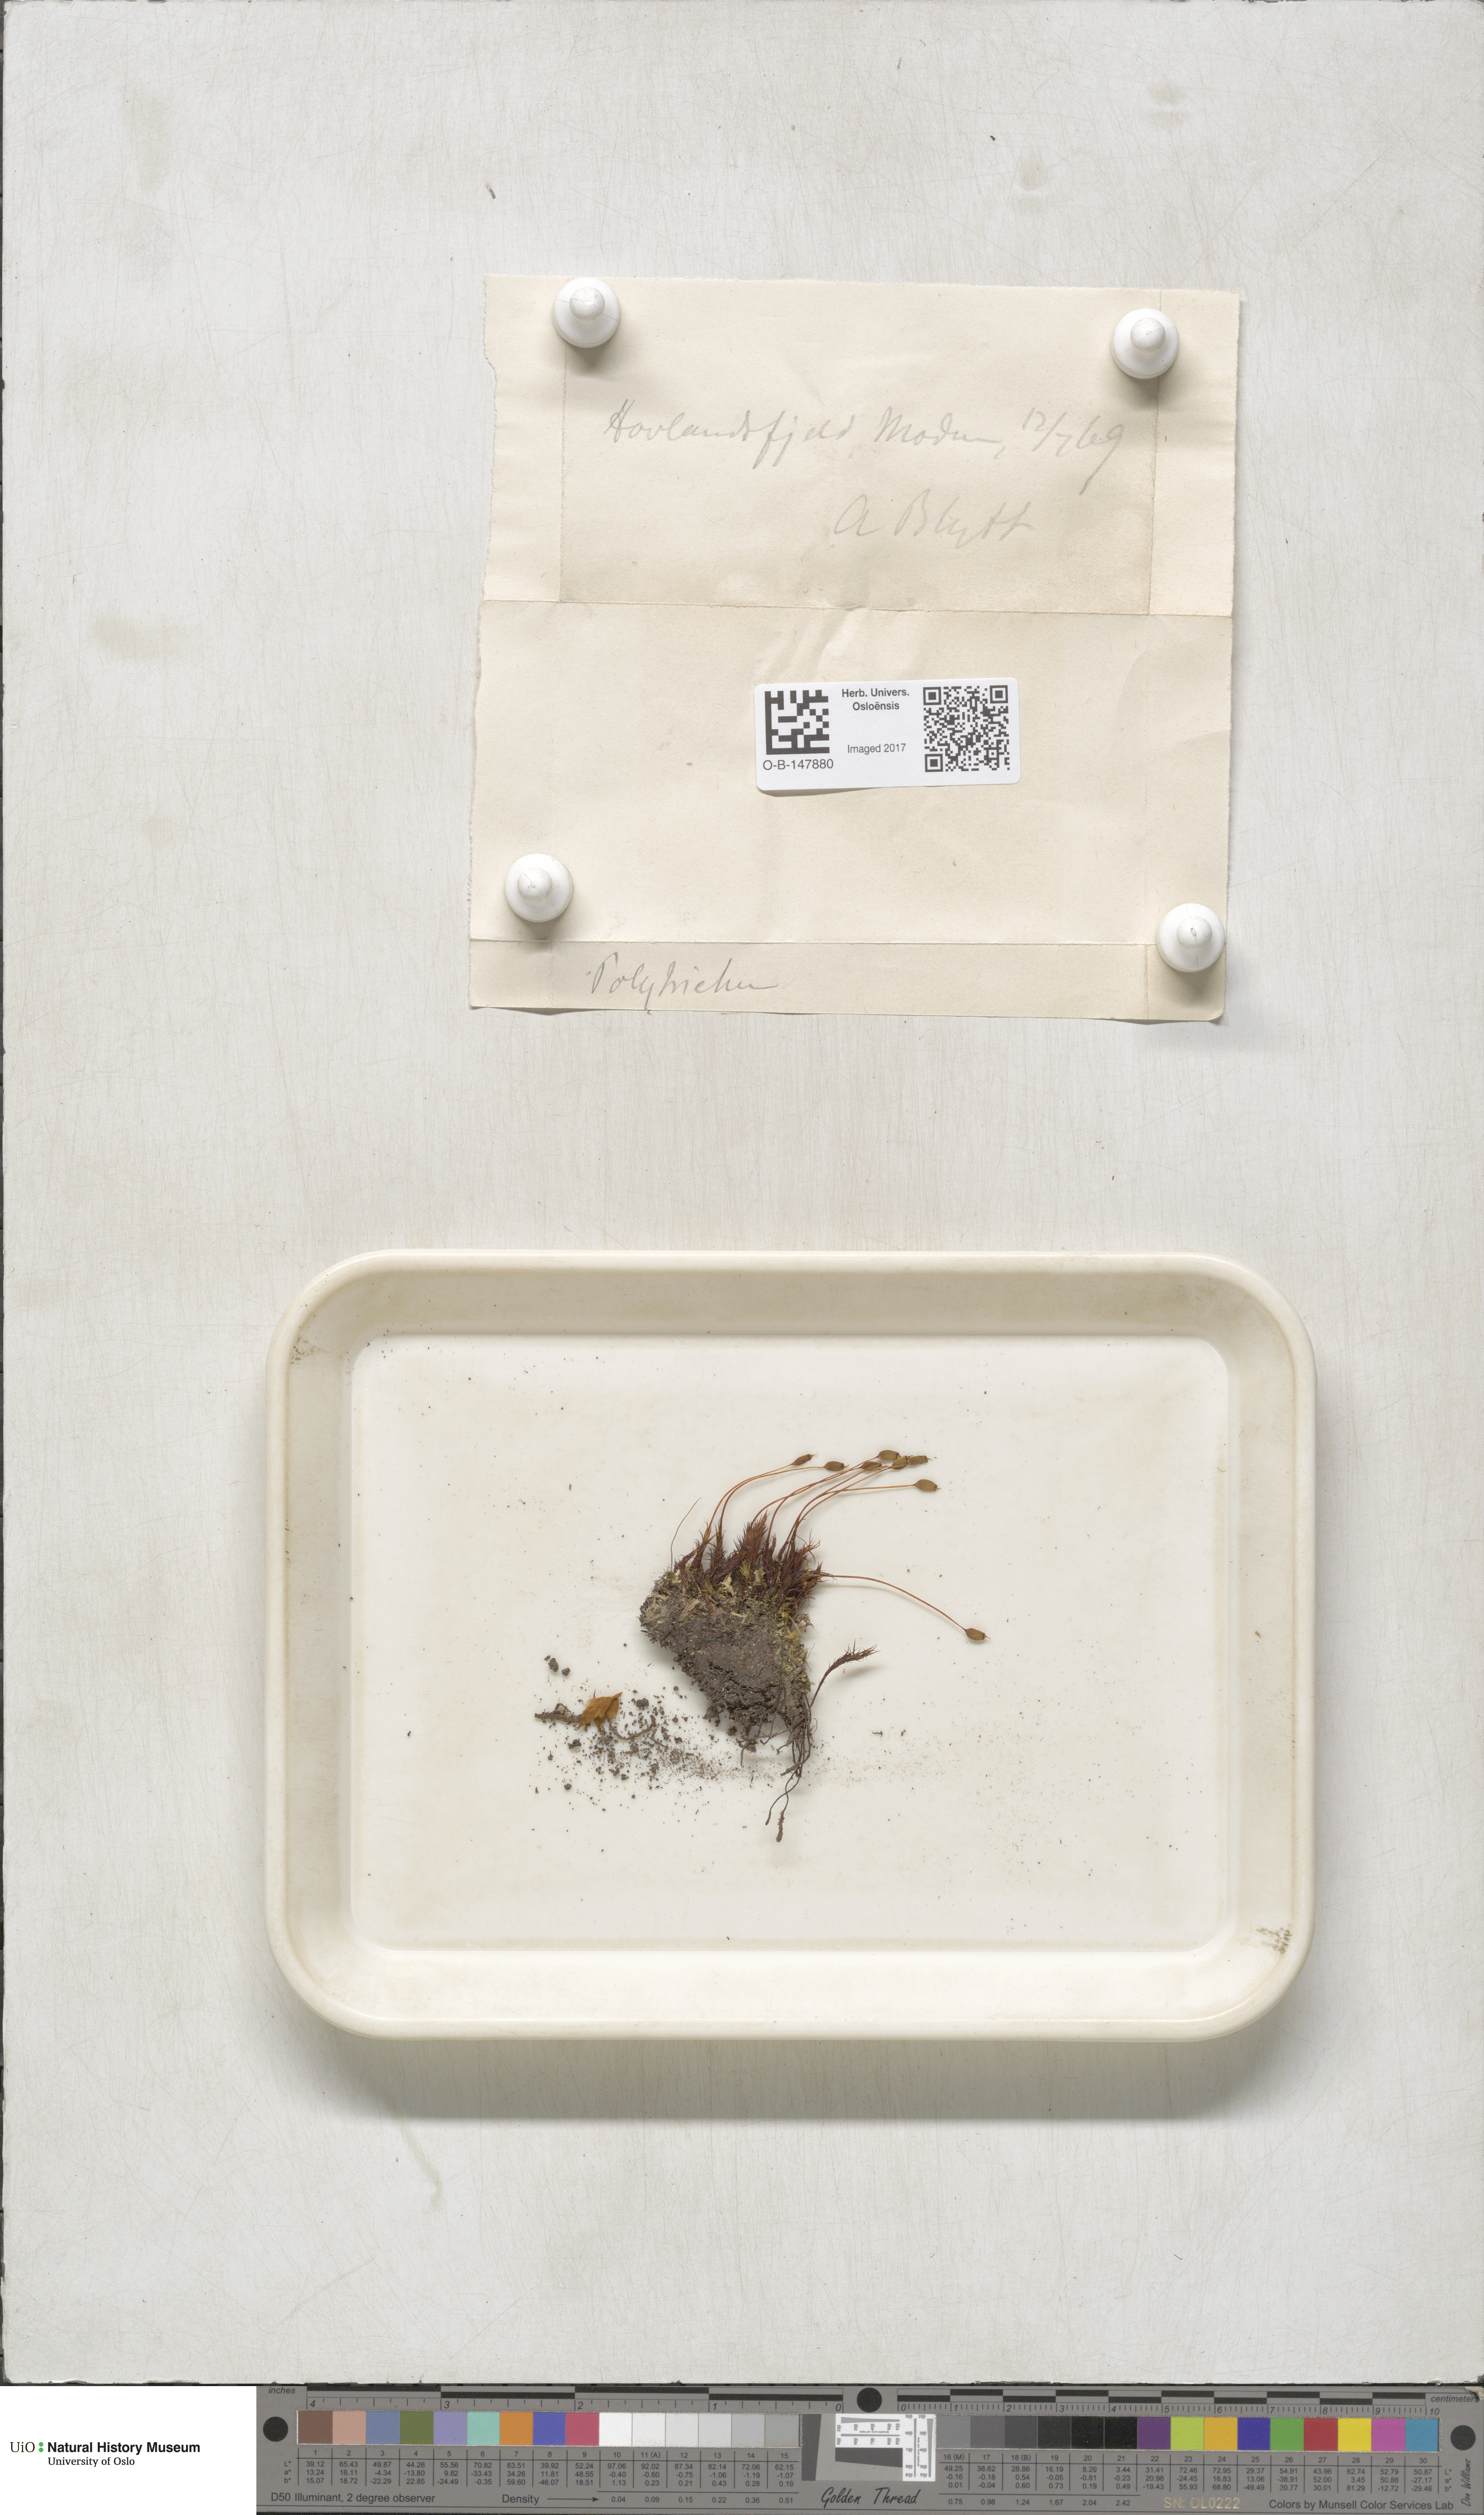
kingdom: Plantae
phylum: Bryophyta
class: Polytrichopsida
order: Polytrichales
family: Polytrichaceae
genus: Polytrichastrum
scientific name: Polytrichastrum alpinum
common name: Alpine haircap
